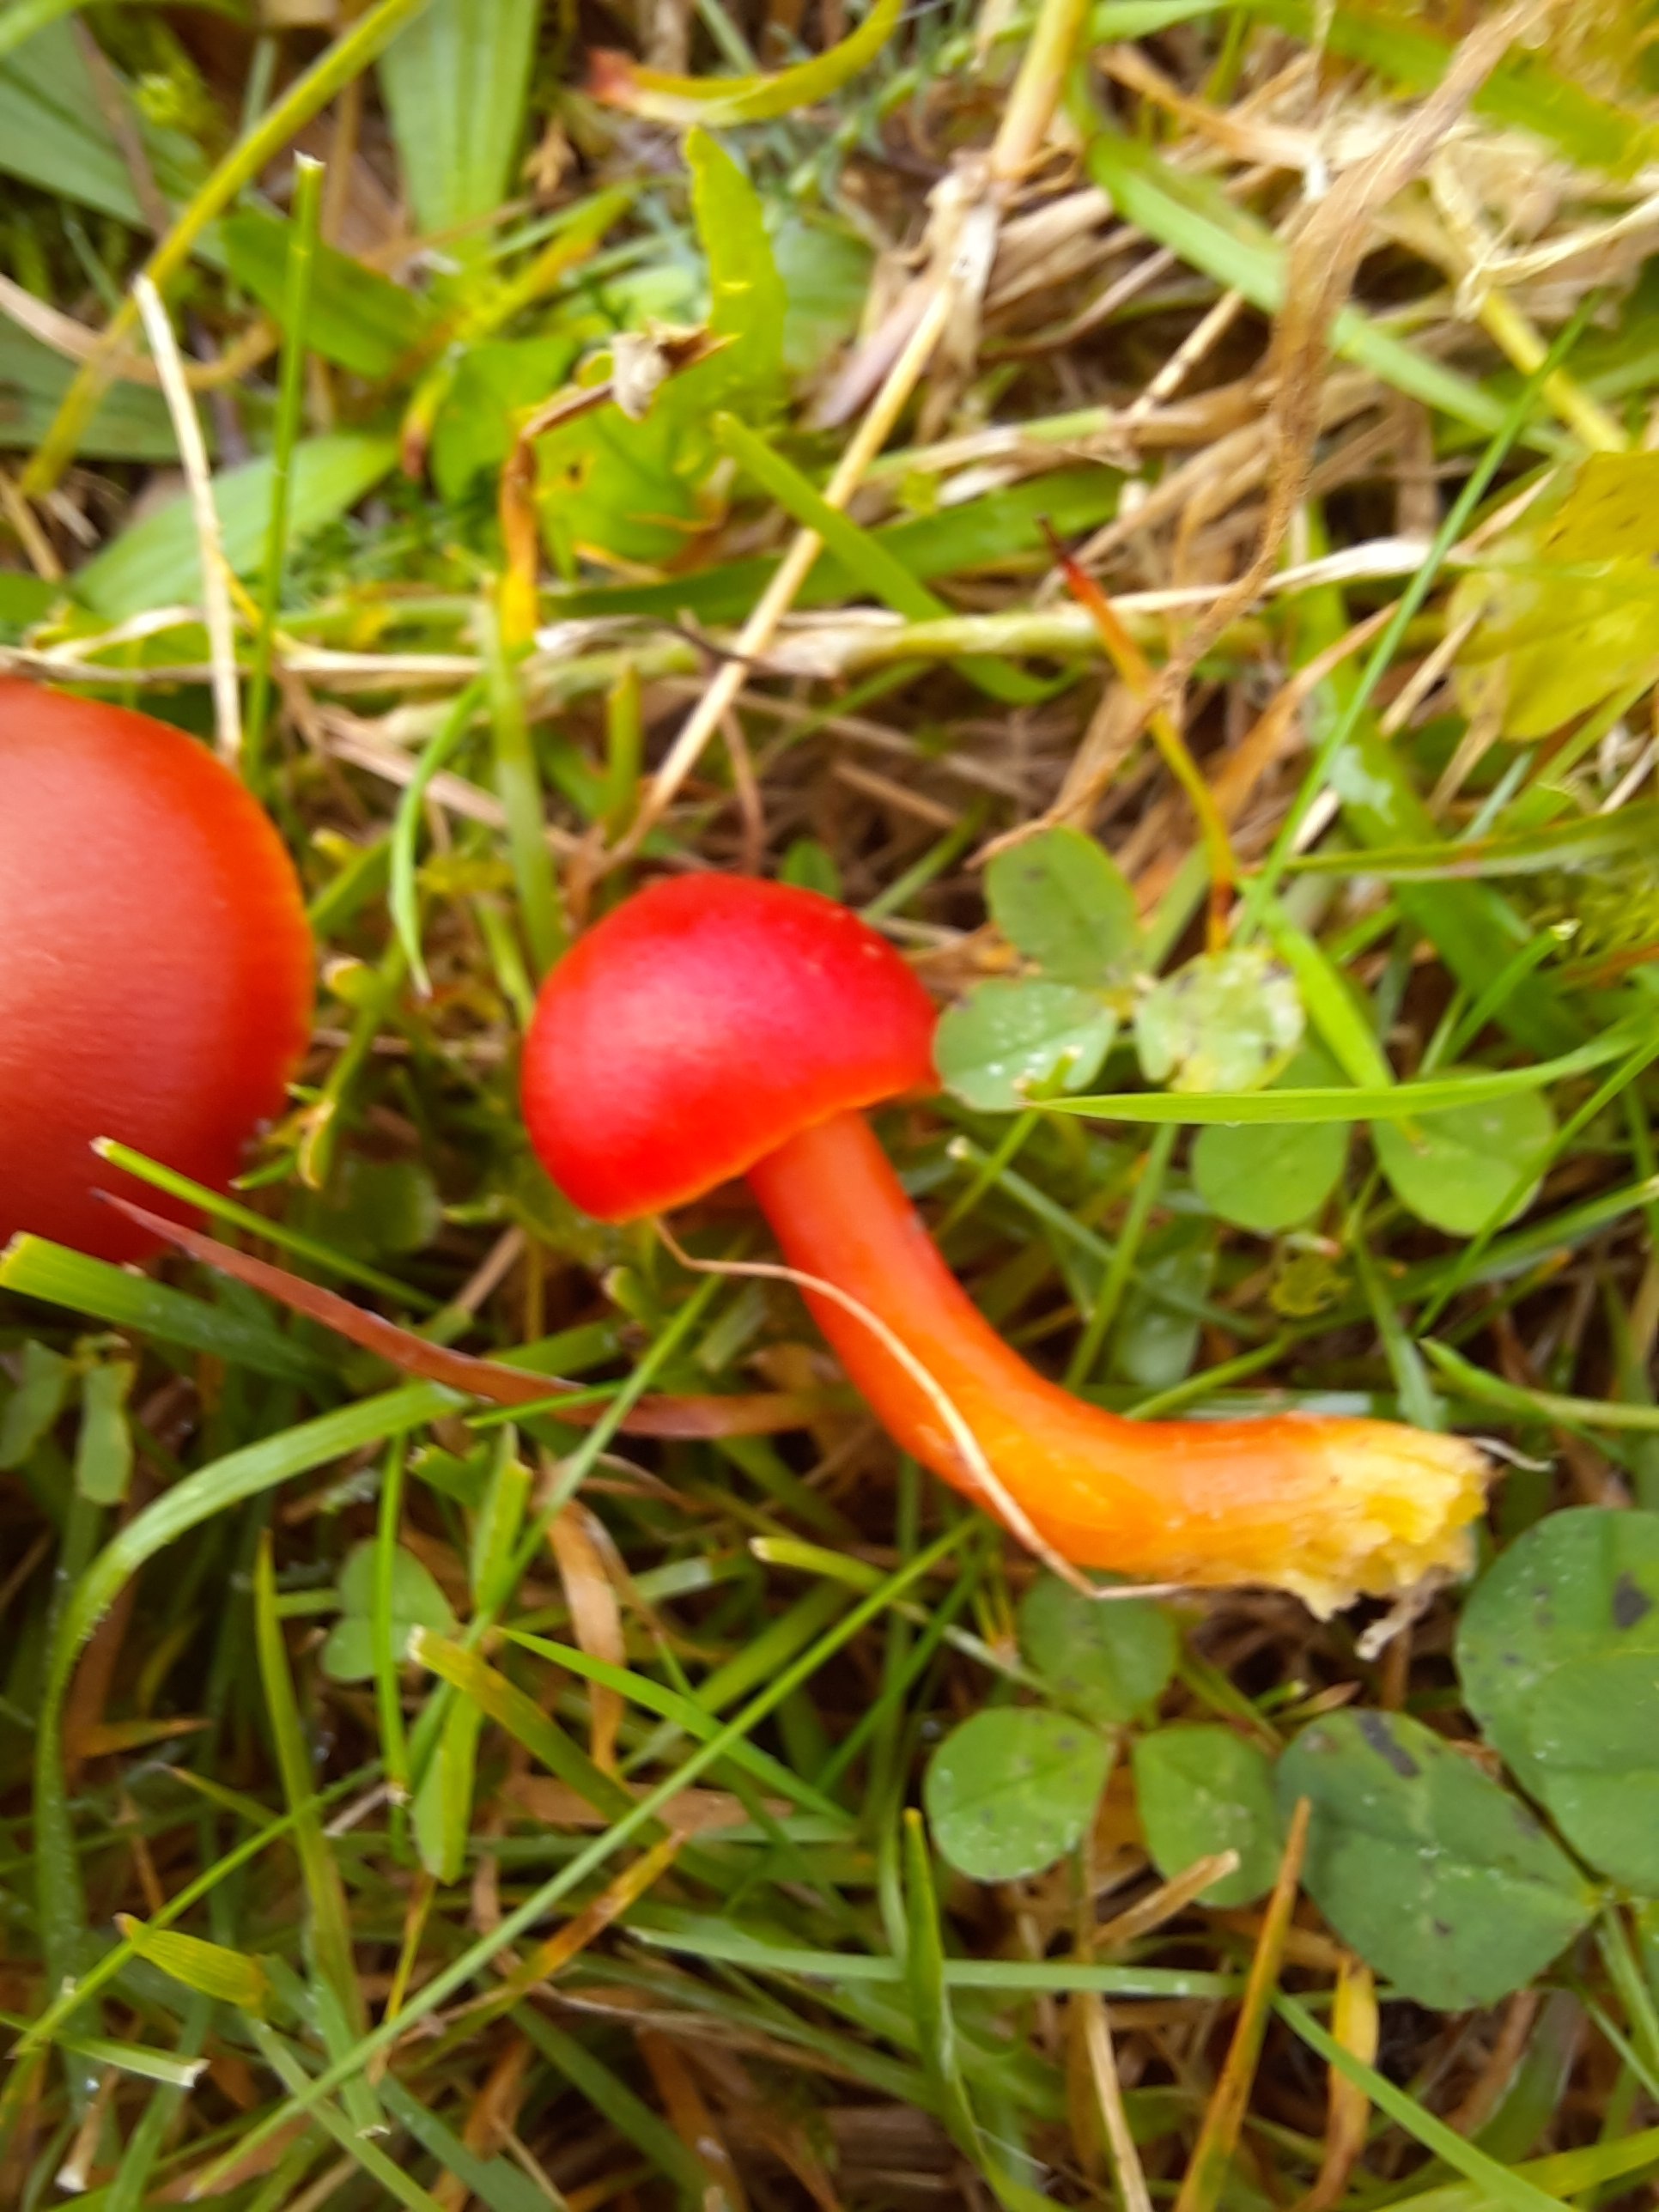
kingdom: Fungi
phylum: Basidiomycota
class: Agaricomycetes
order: Agaricales
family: Hygrophoraceae
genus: Hygrocybe
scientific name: Hygrocybe coccinea
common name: cinnober-vokshat
